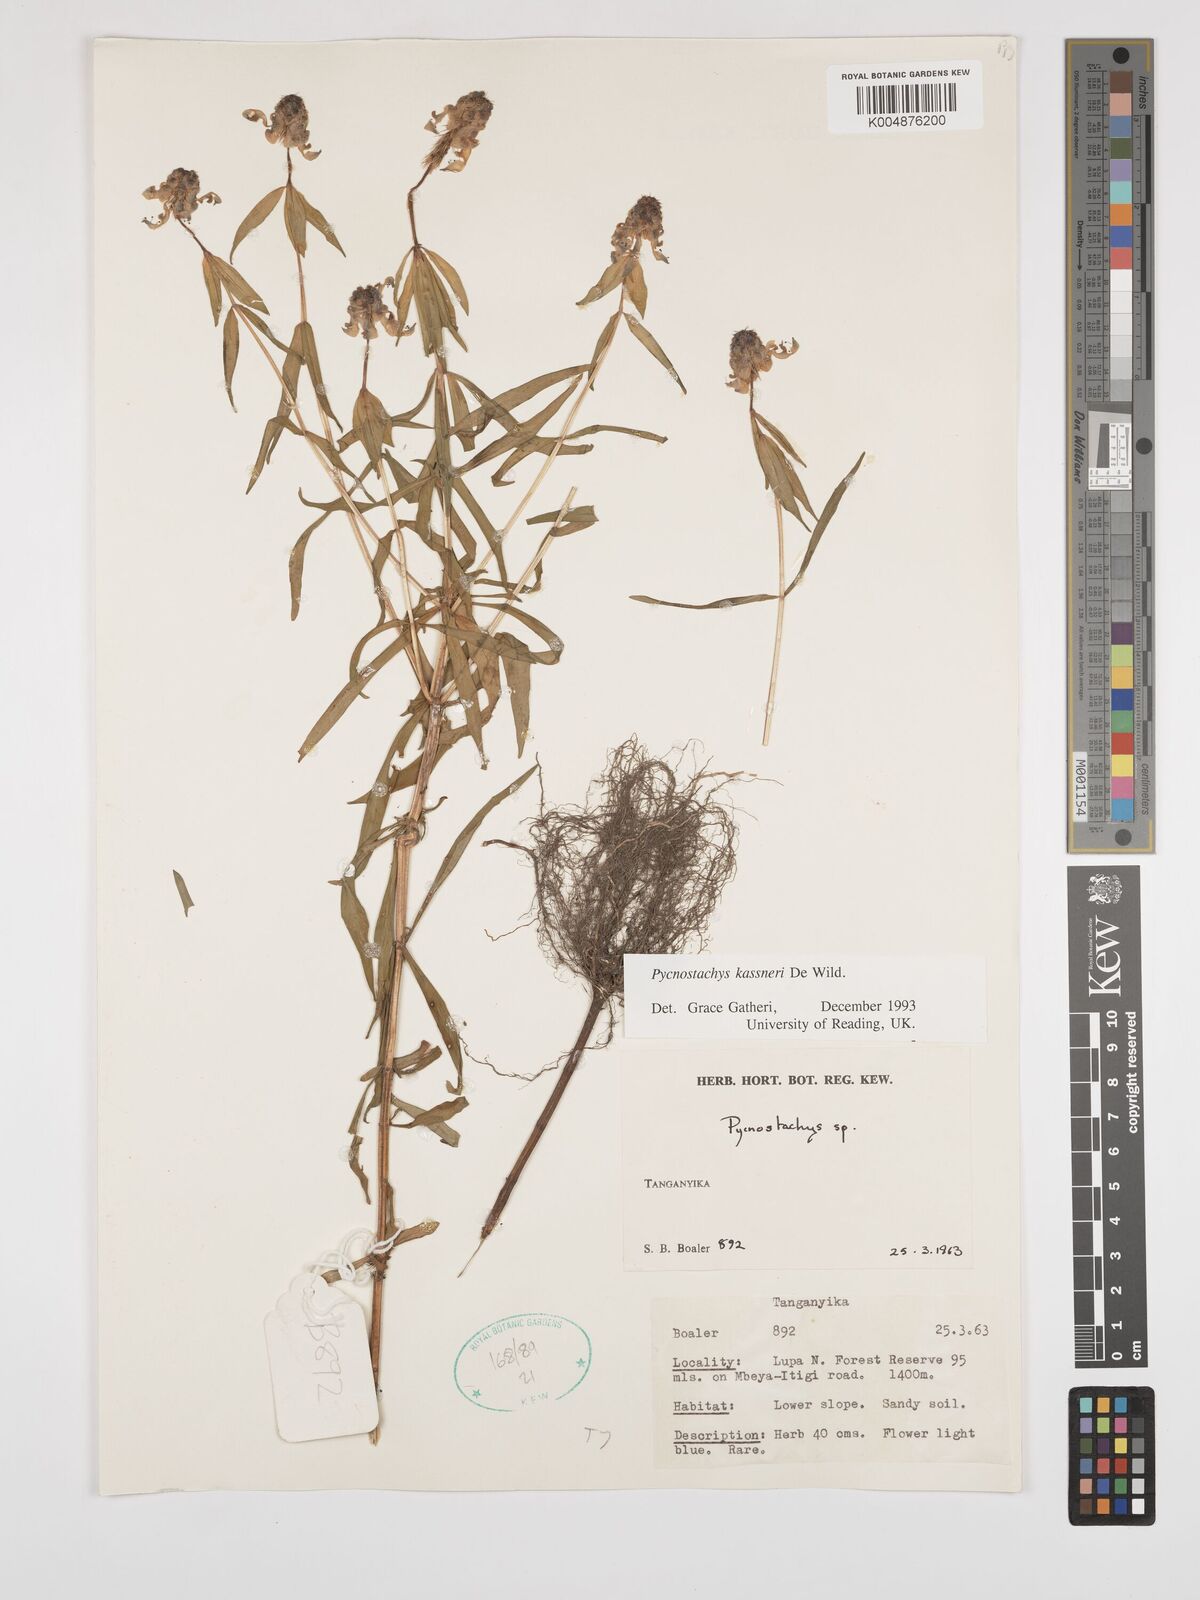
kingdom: Plantae
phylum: Tracheophyta
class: Magnoliopsida
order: Lamiales
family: Lamiaceae
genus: Coleus
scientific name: Coleus scruposus
